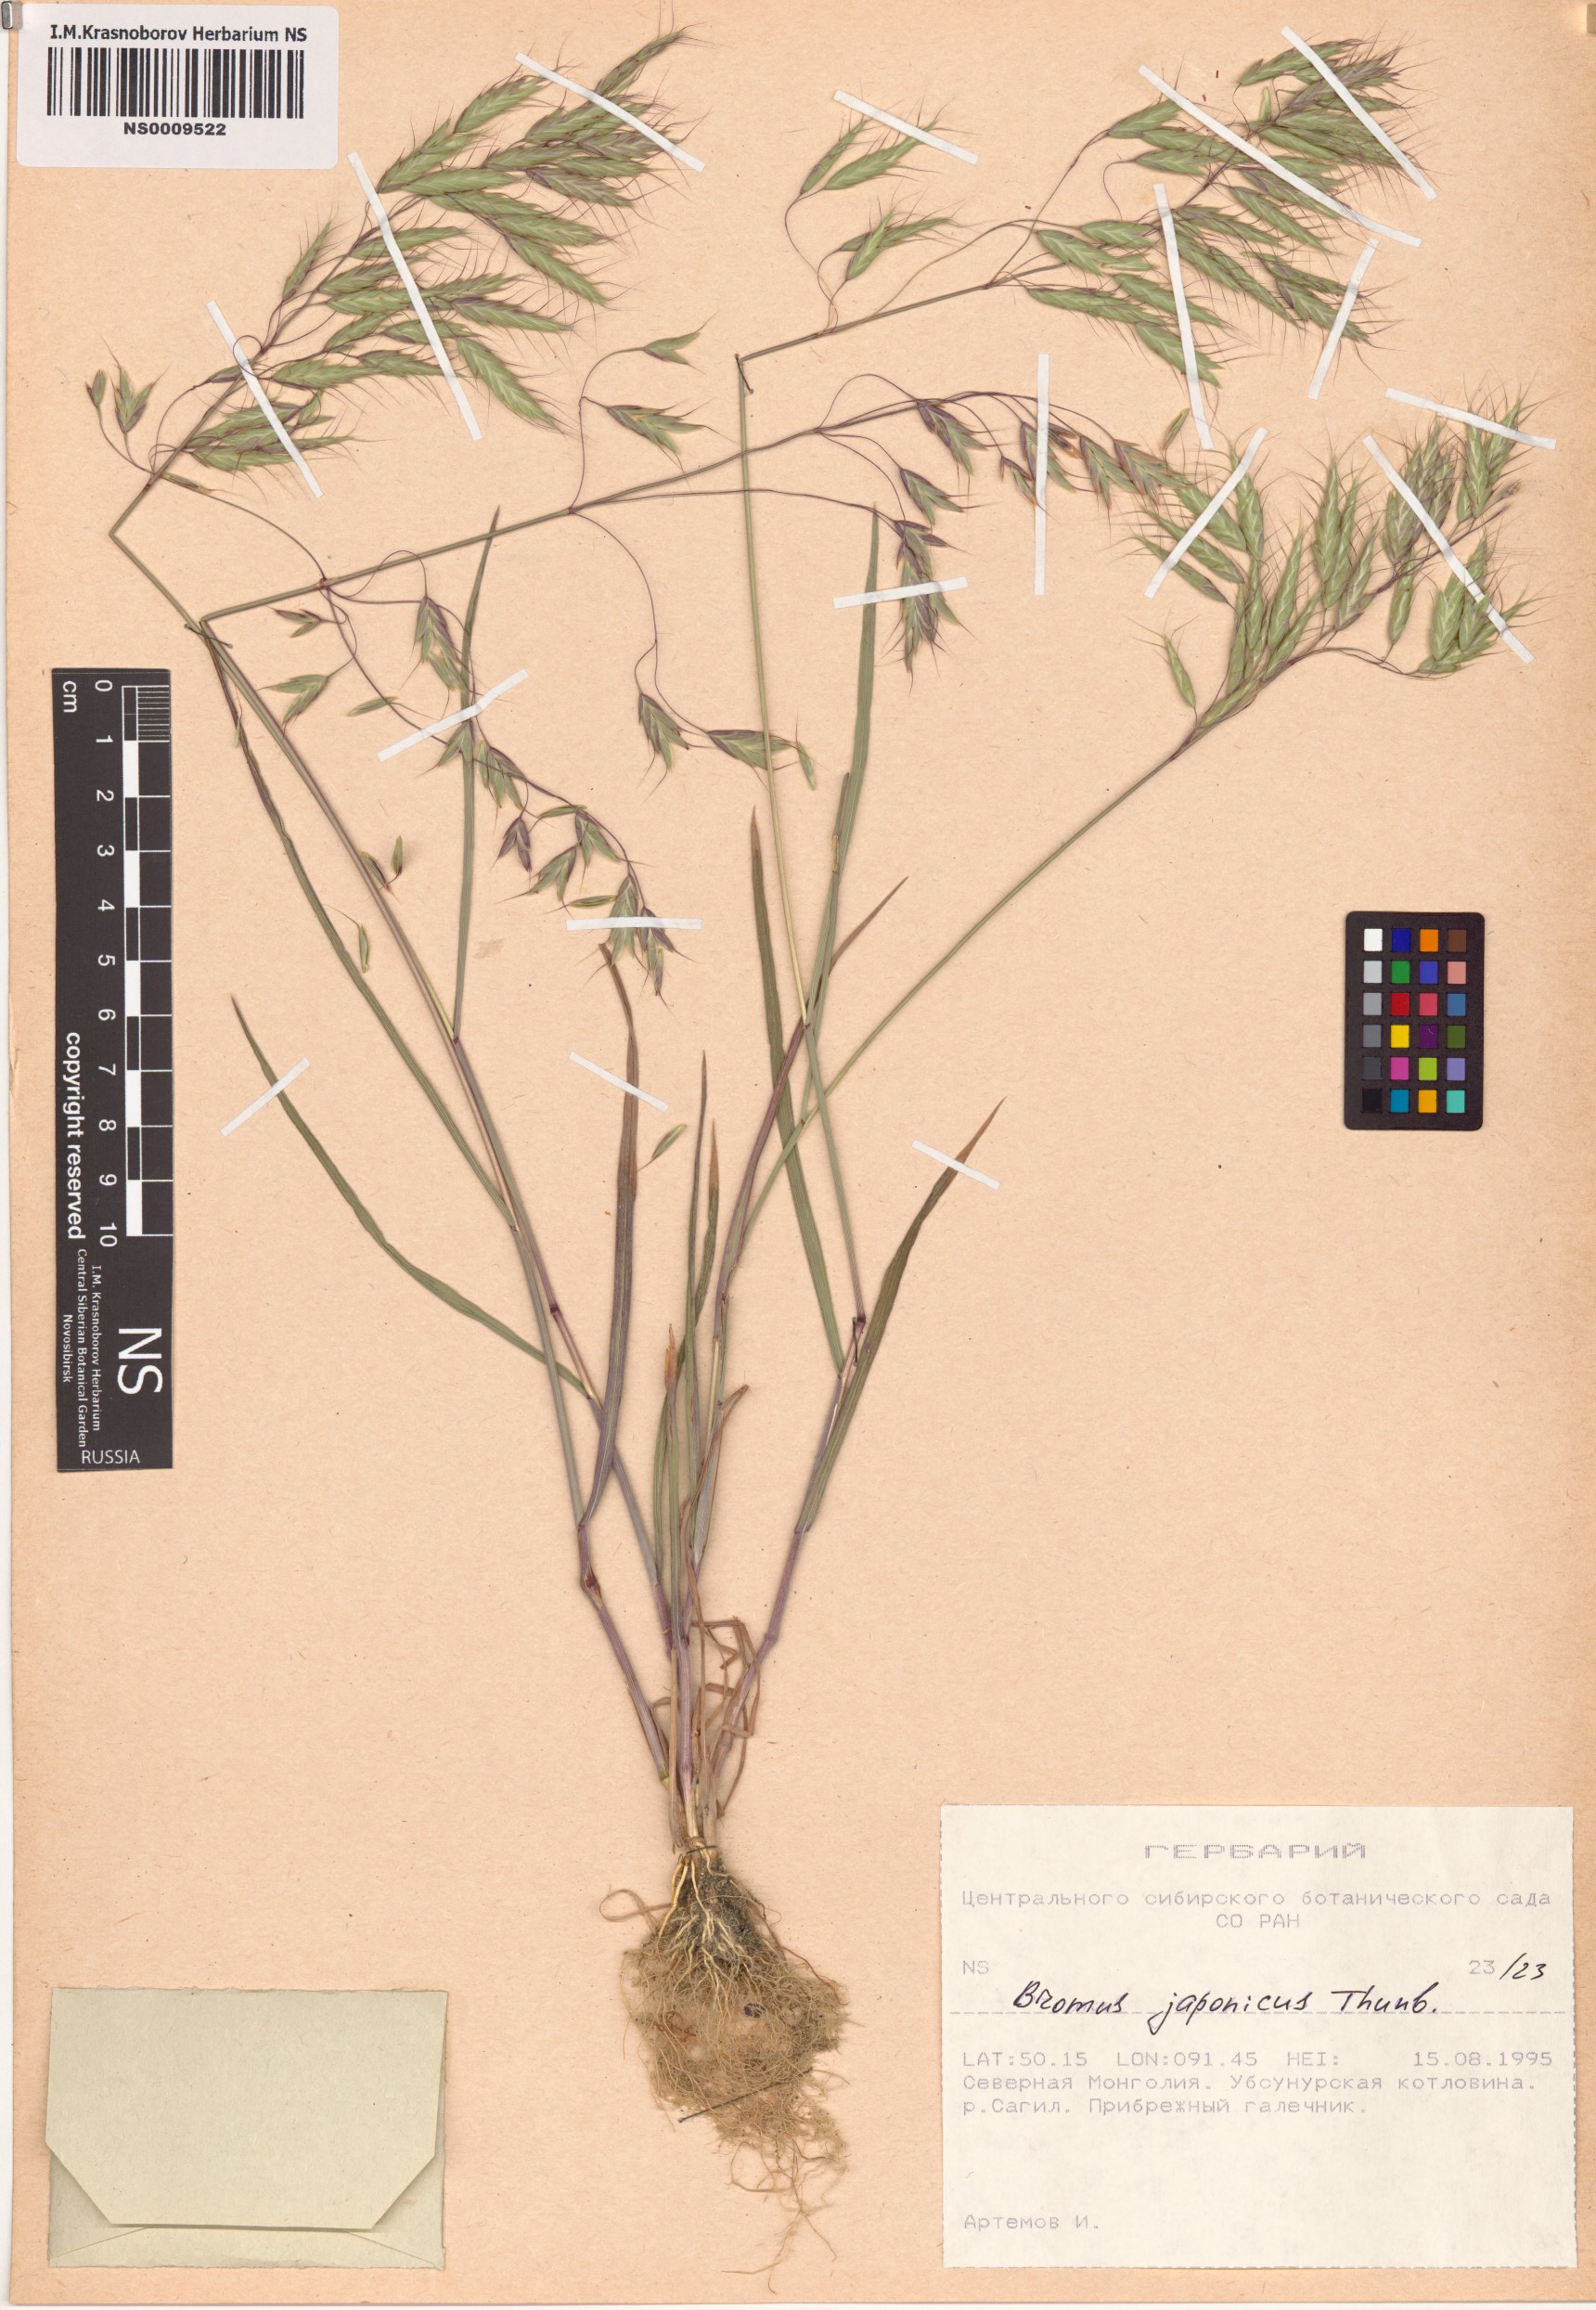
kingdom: Plantae
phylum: Tracheophyta
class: Liliopsida
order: Poales
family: Poaceae
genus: Bromus
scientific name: Bromus japonicus
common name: Japanese brome
